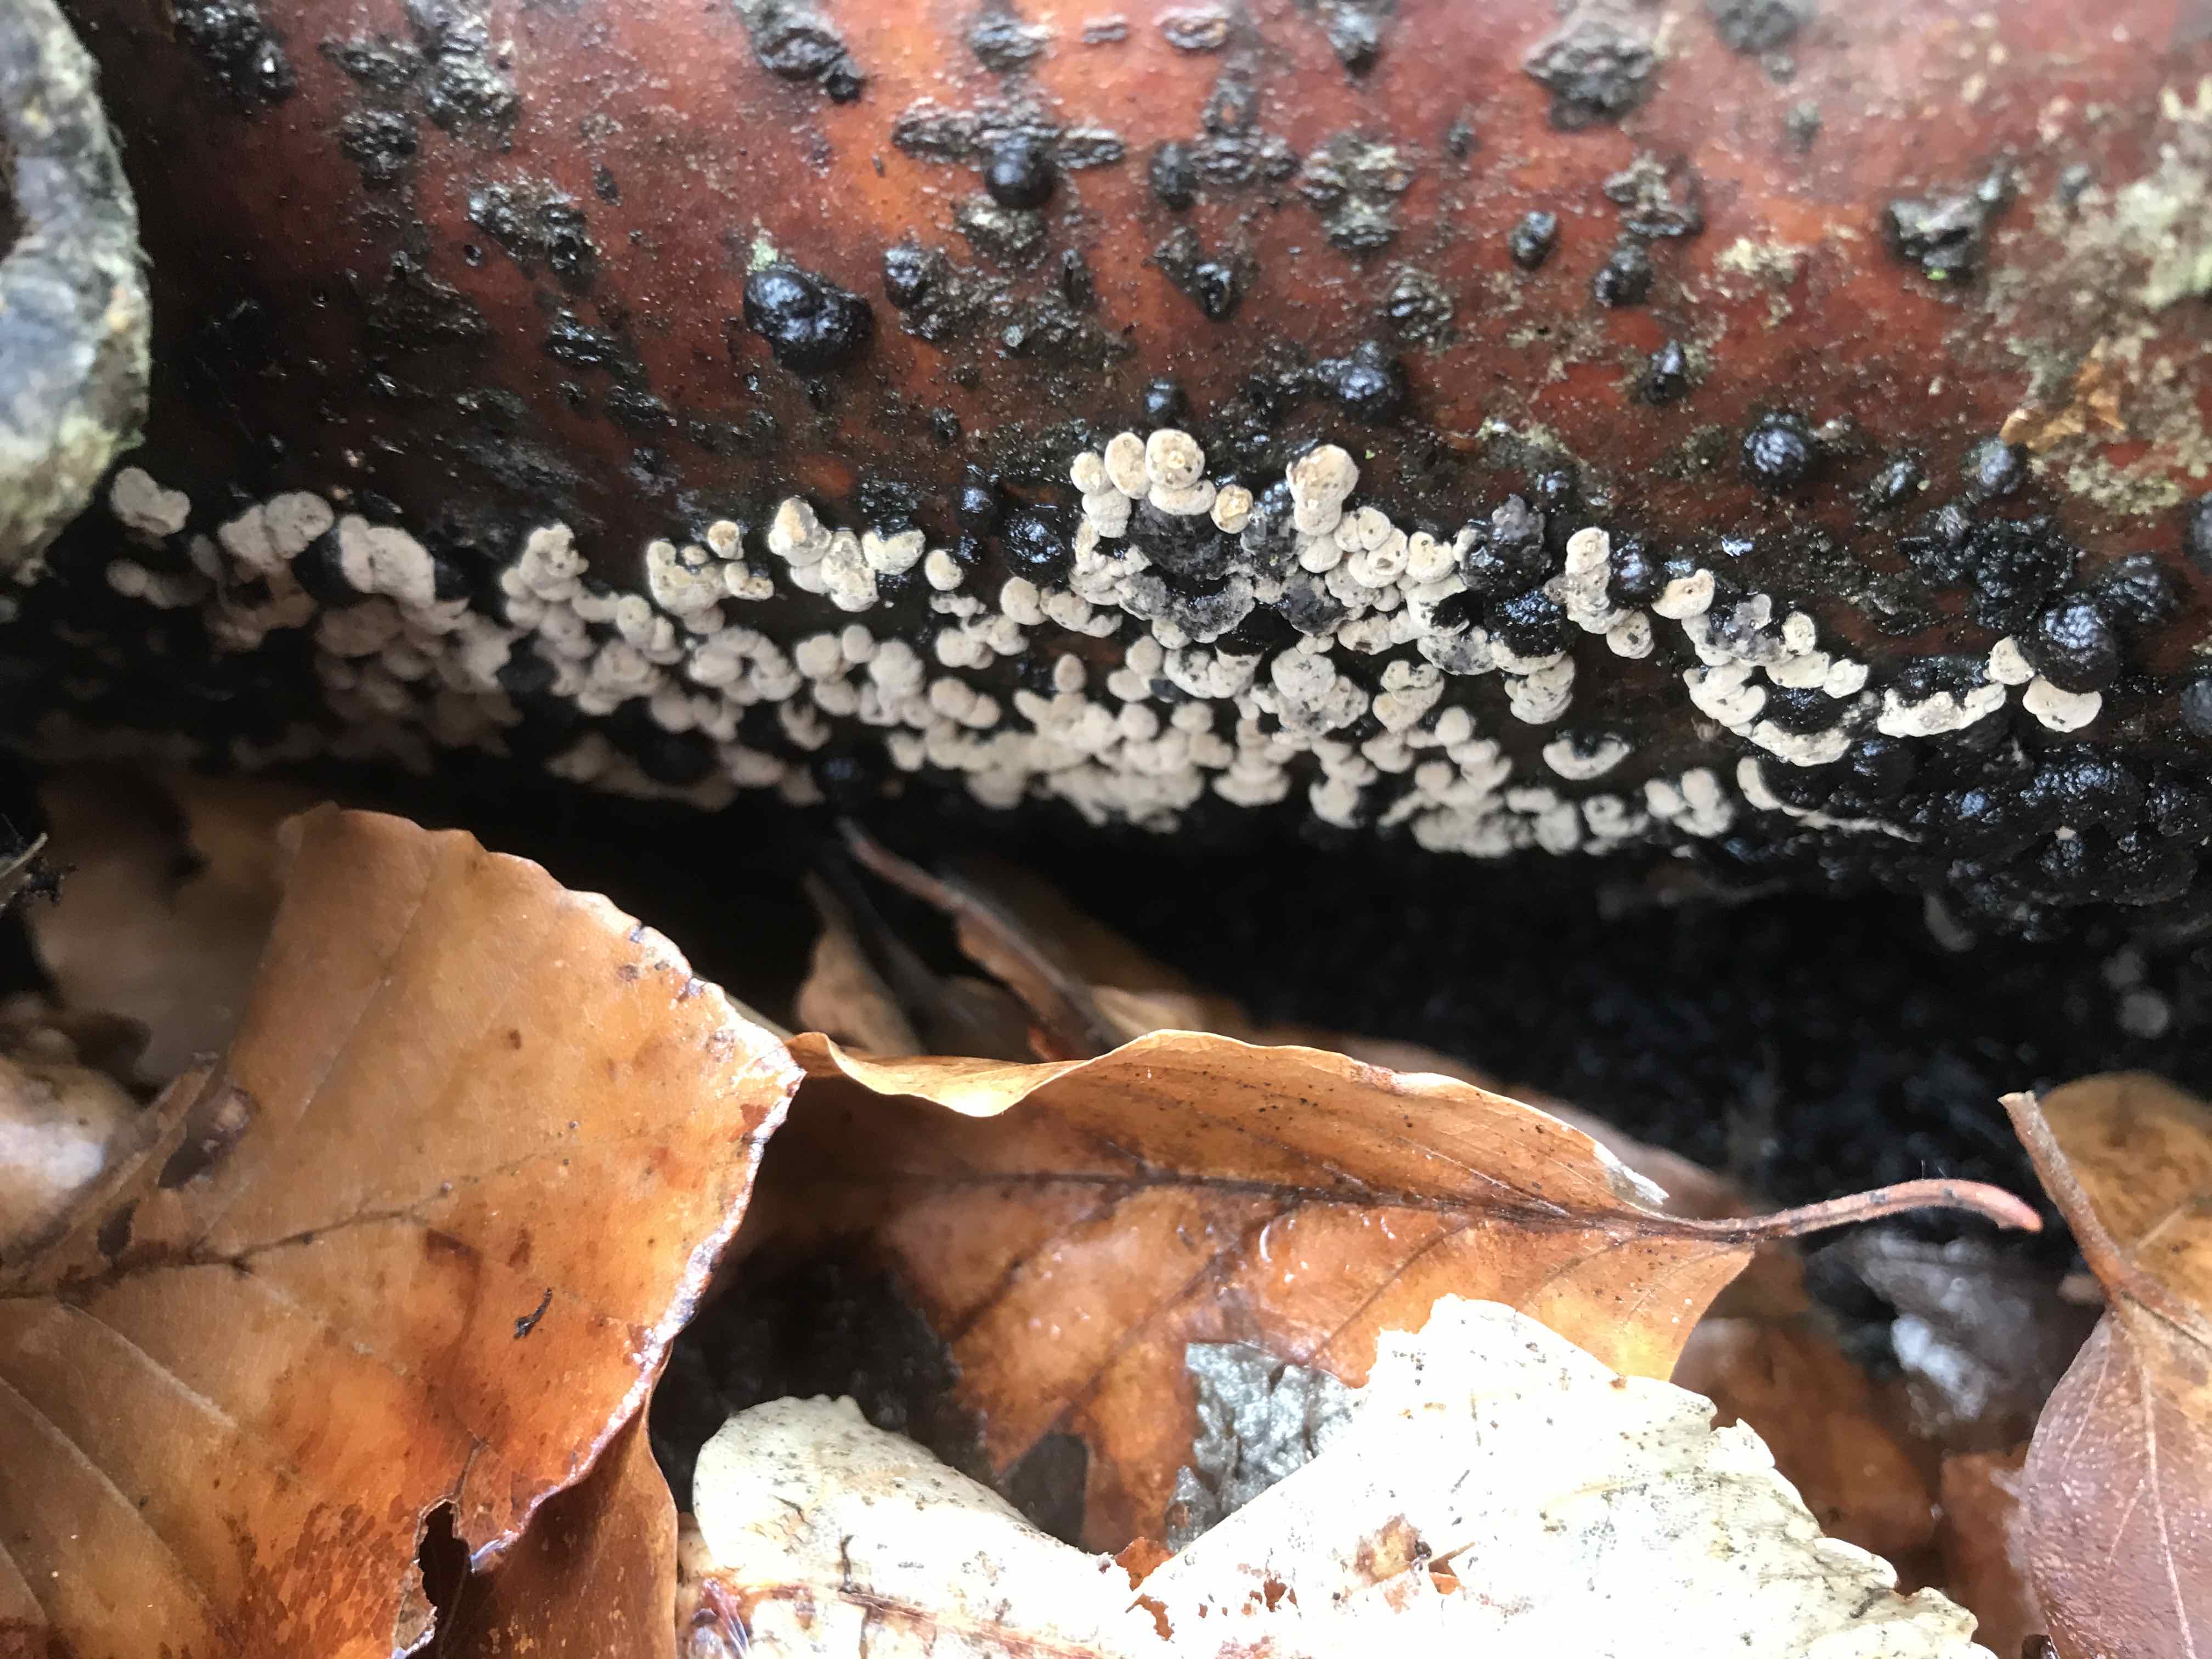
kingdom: Fungi
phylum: Ascomycota
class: Sordariomycetes
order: Xylariales
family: Hypoxylaceae
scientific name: Hypoxylaceae
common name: kulbærfamilien
